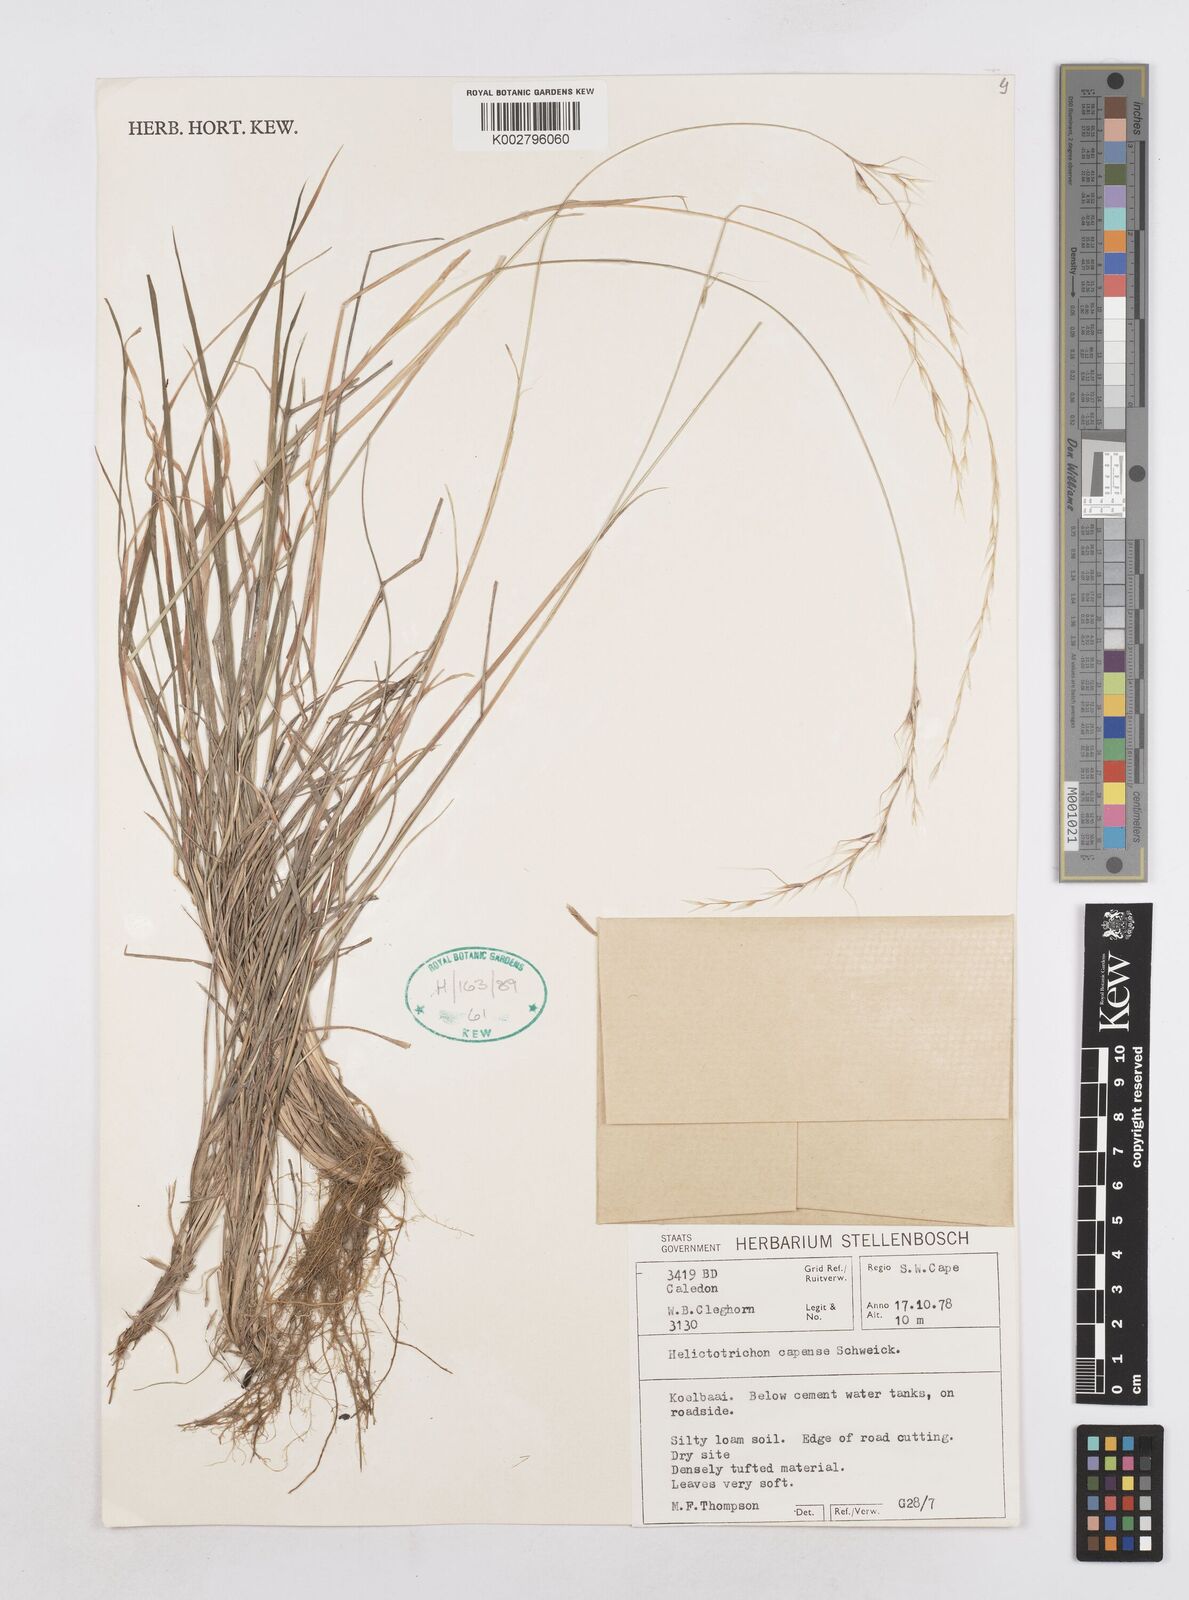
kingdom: Plantae
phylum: Tracheophyta
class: Liliopsida
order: Poales
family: Poaceae
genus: Trisetopsis
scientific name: Trisetopsis capensis
